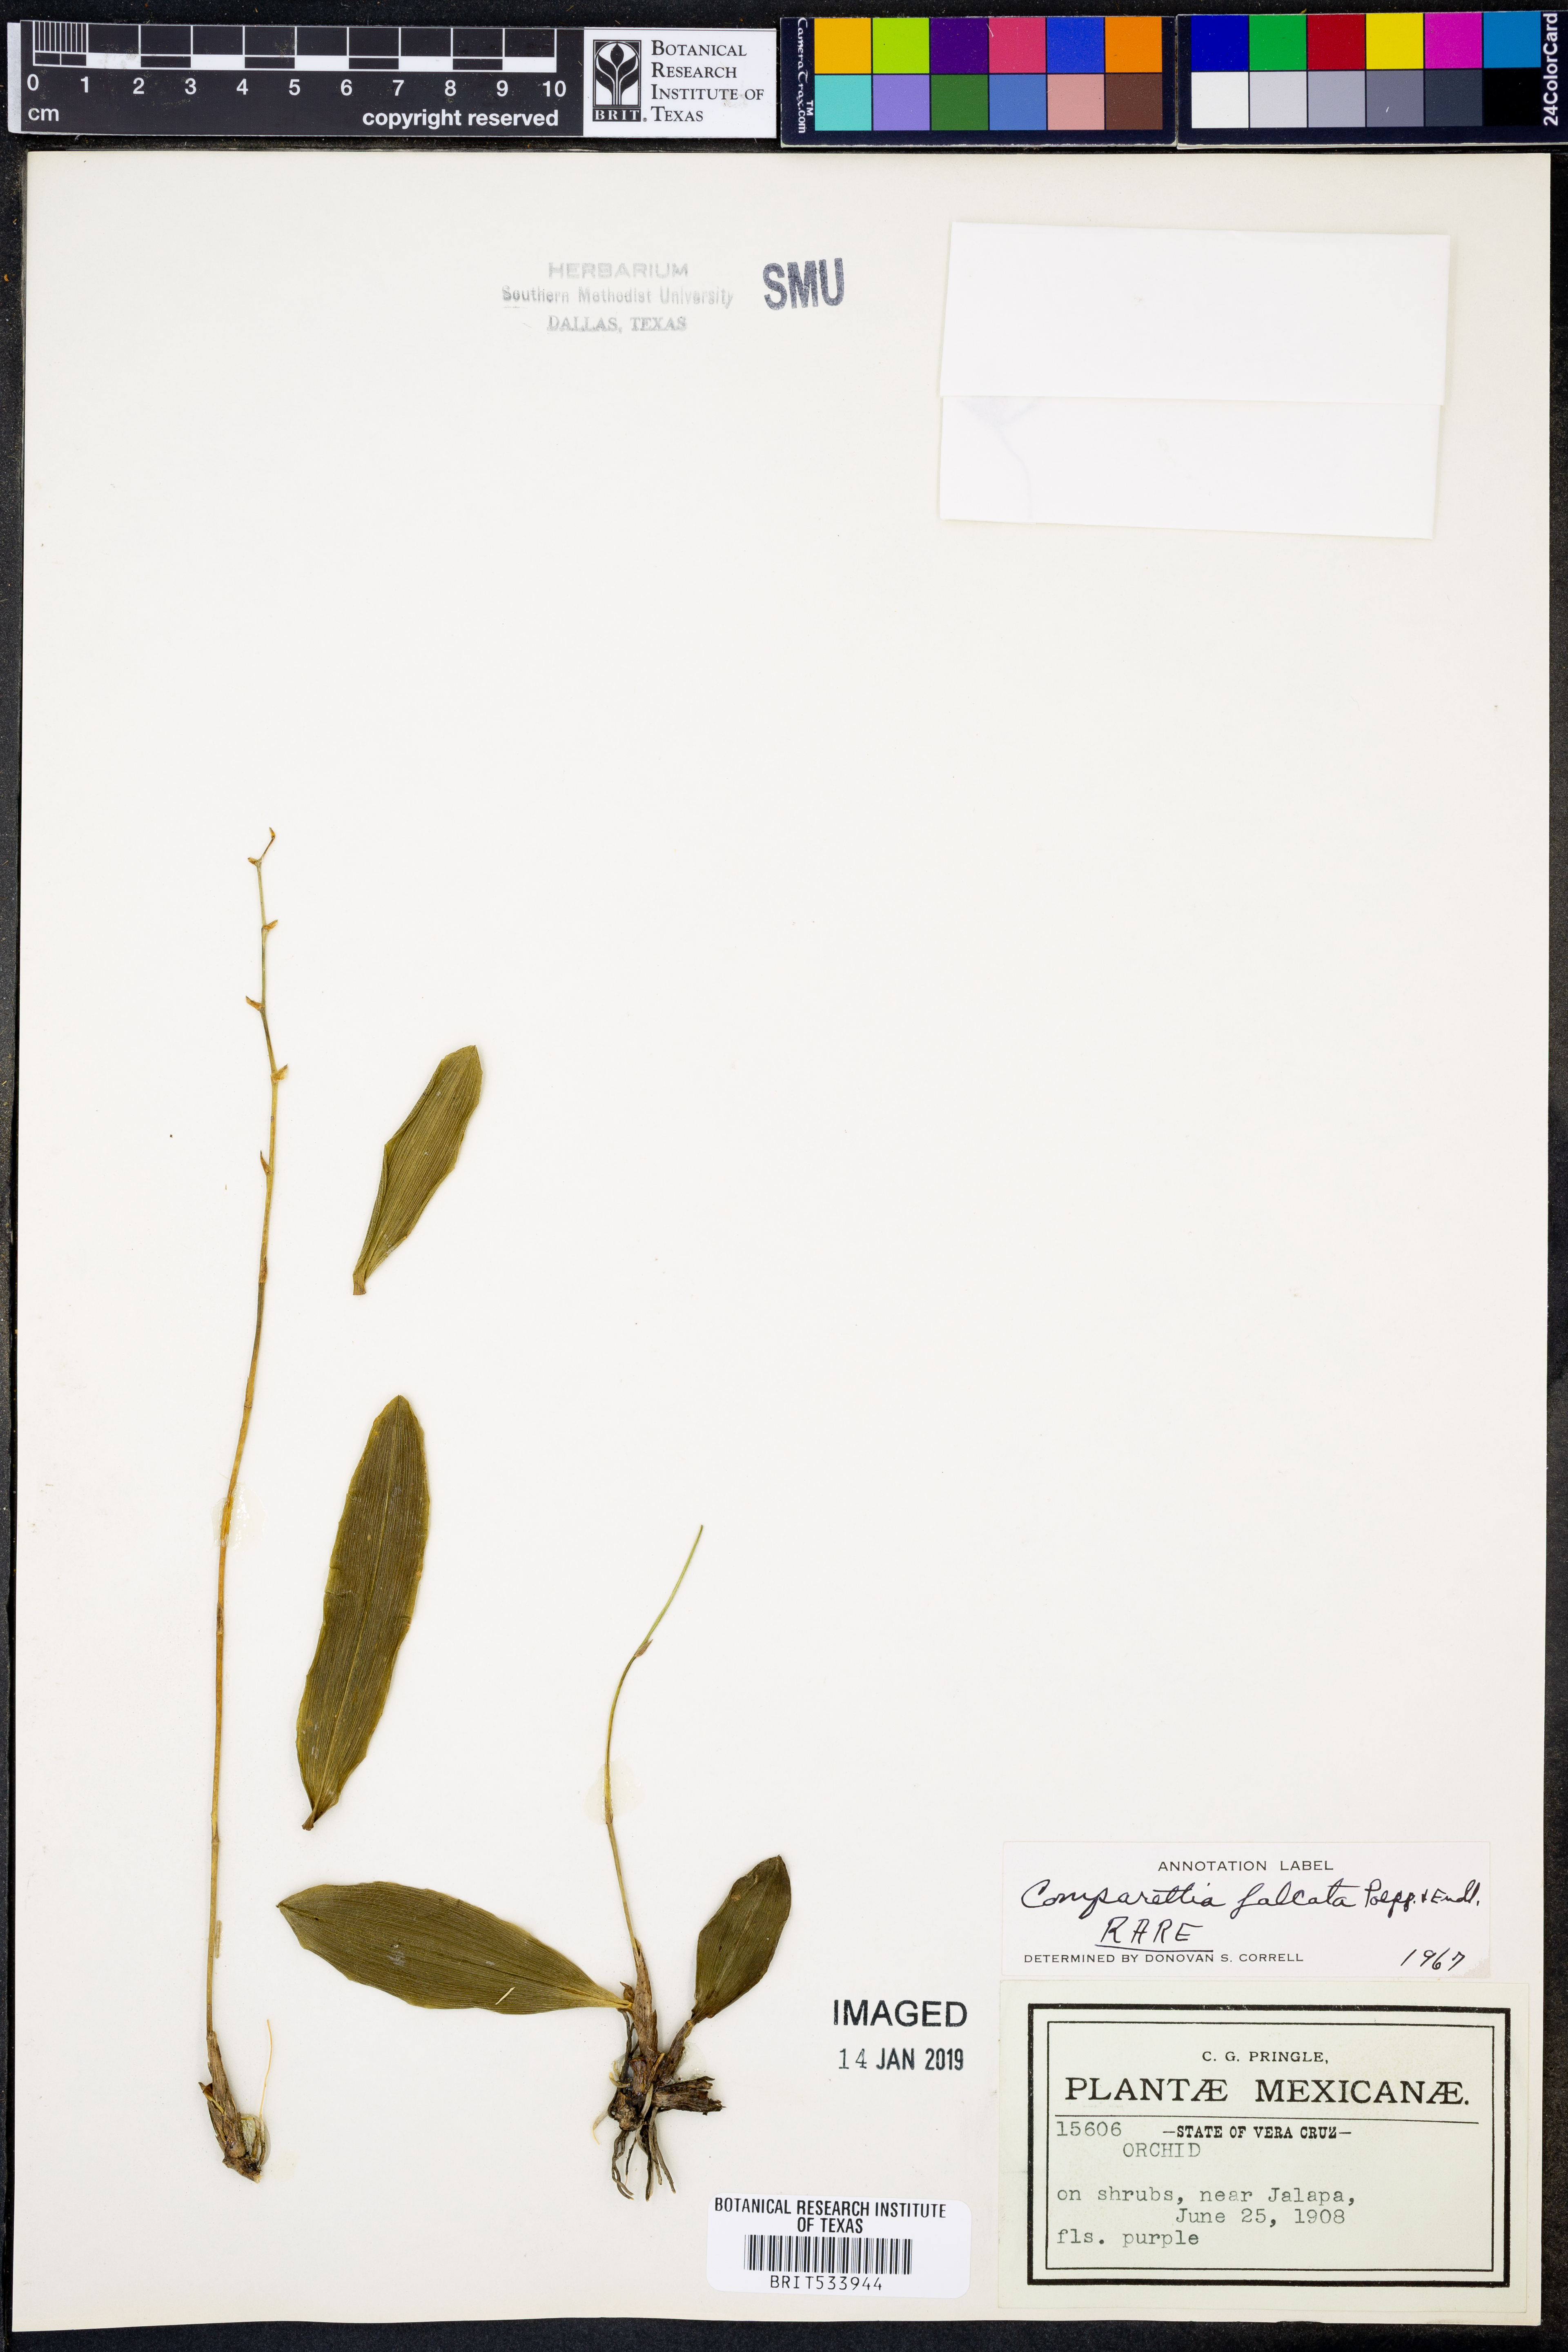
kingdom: Plantae
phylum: Tracheophyta
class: Liliopsida
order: Asparagales
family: Orchidaceae
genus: Comparettia
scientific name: Comparettia falcata
